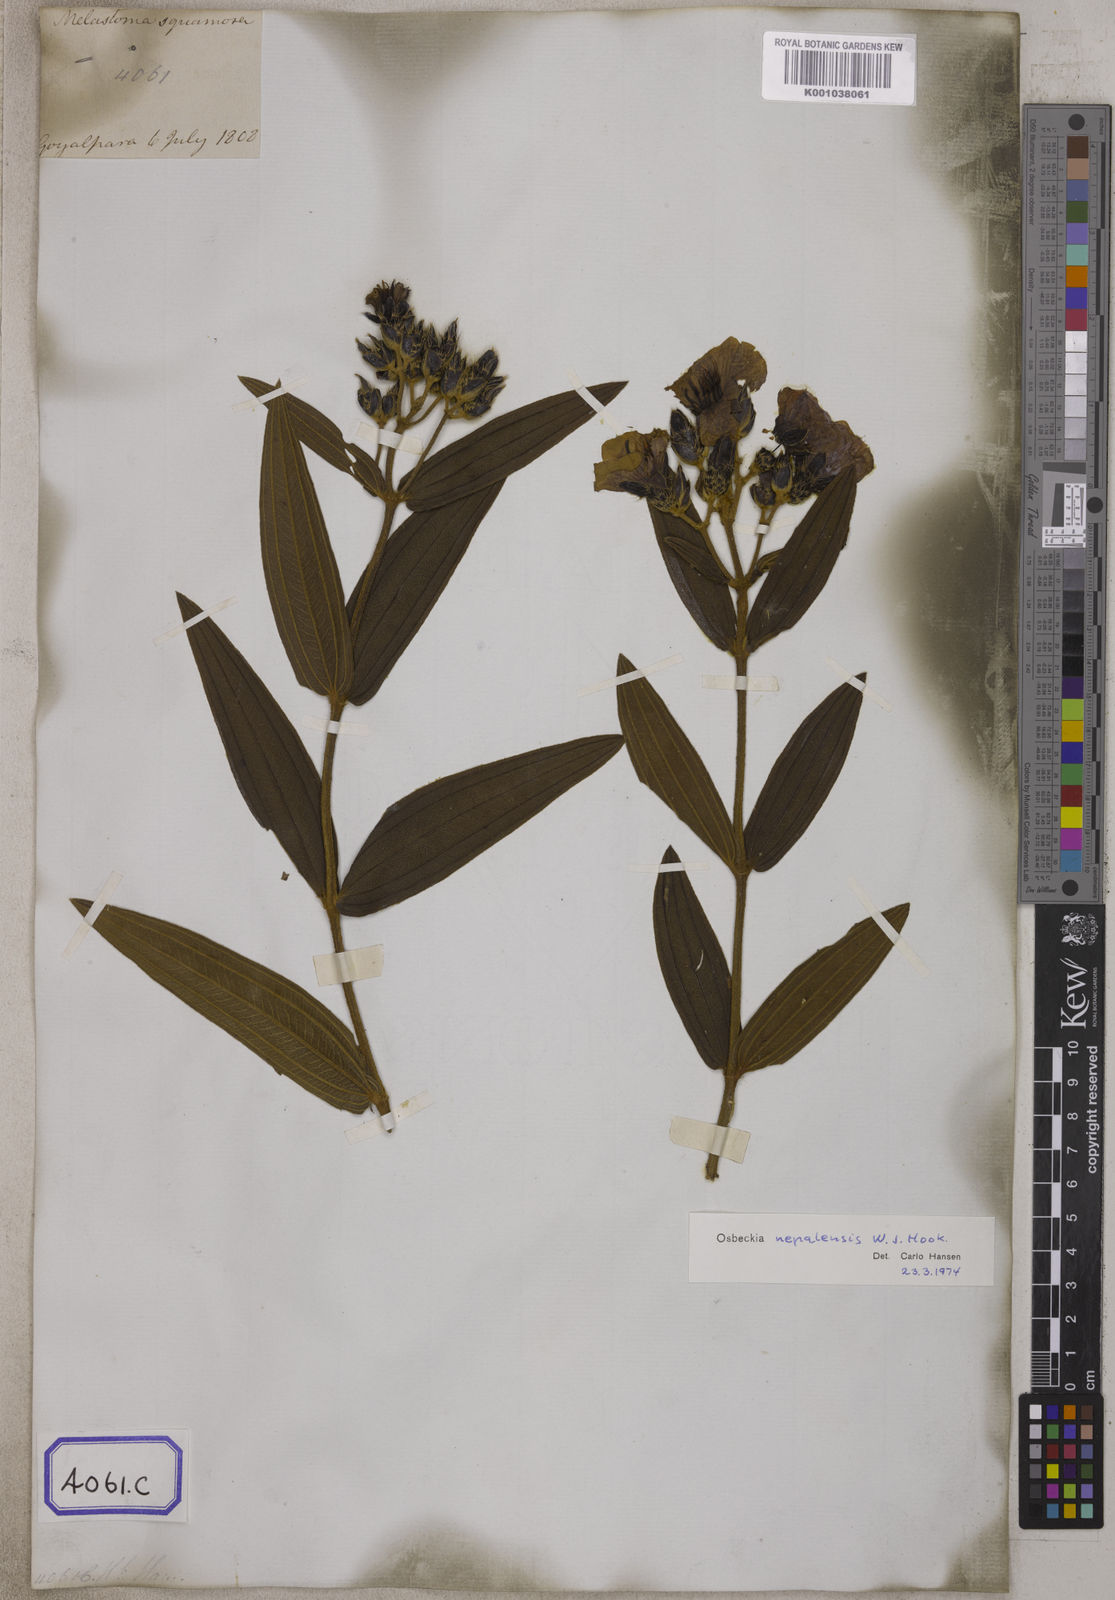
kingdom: Plantae
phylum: Tracheophyta
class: Magnoliopsida
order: Myrtales
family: Melastomataceae
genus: Osbeckia
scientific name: Osbeckia nepalensis
